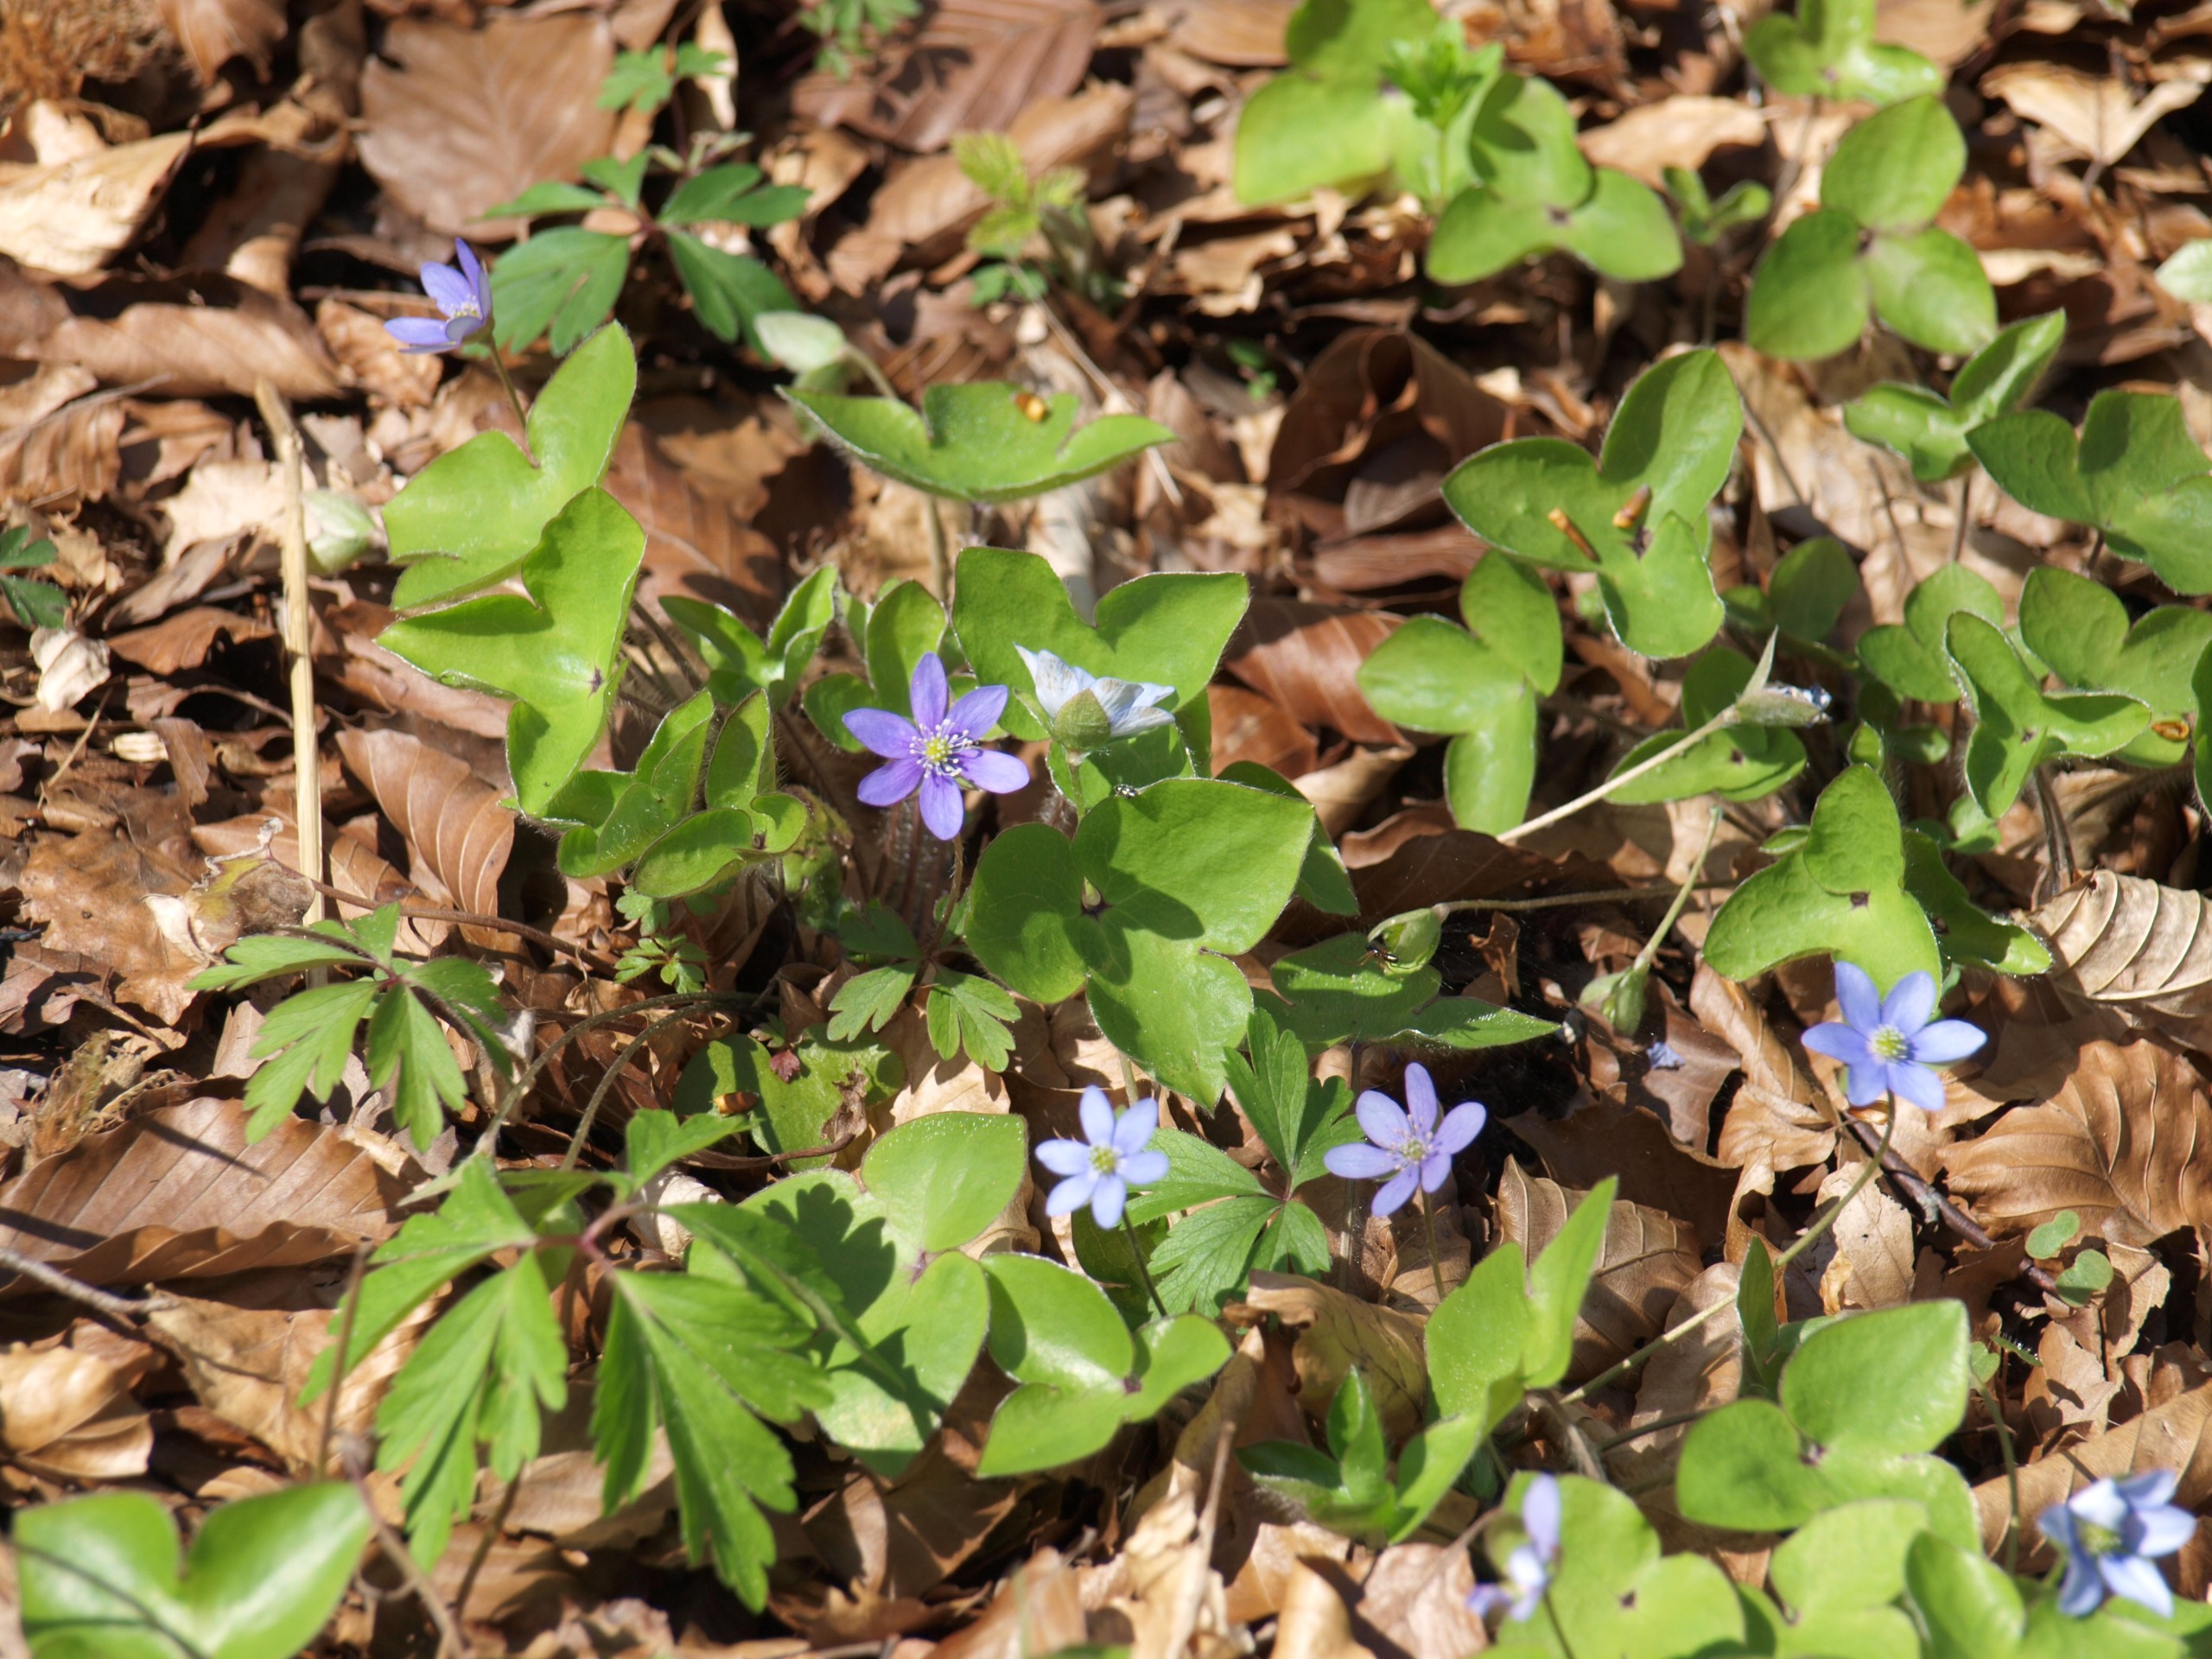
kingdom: Plantae
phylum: Tracheophyta
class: Magnoliopsida
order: Ranunculales
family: Ranunculaceae
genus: Hepatica
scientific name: Hepatica nobilis
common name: Blå anemone
